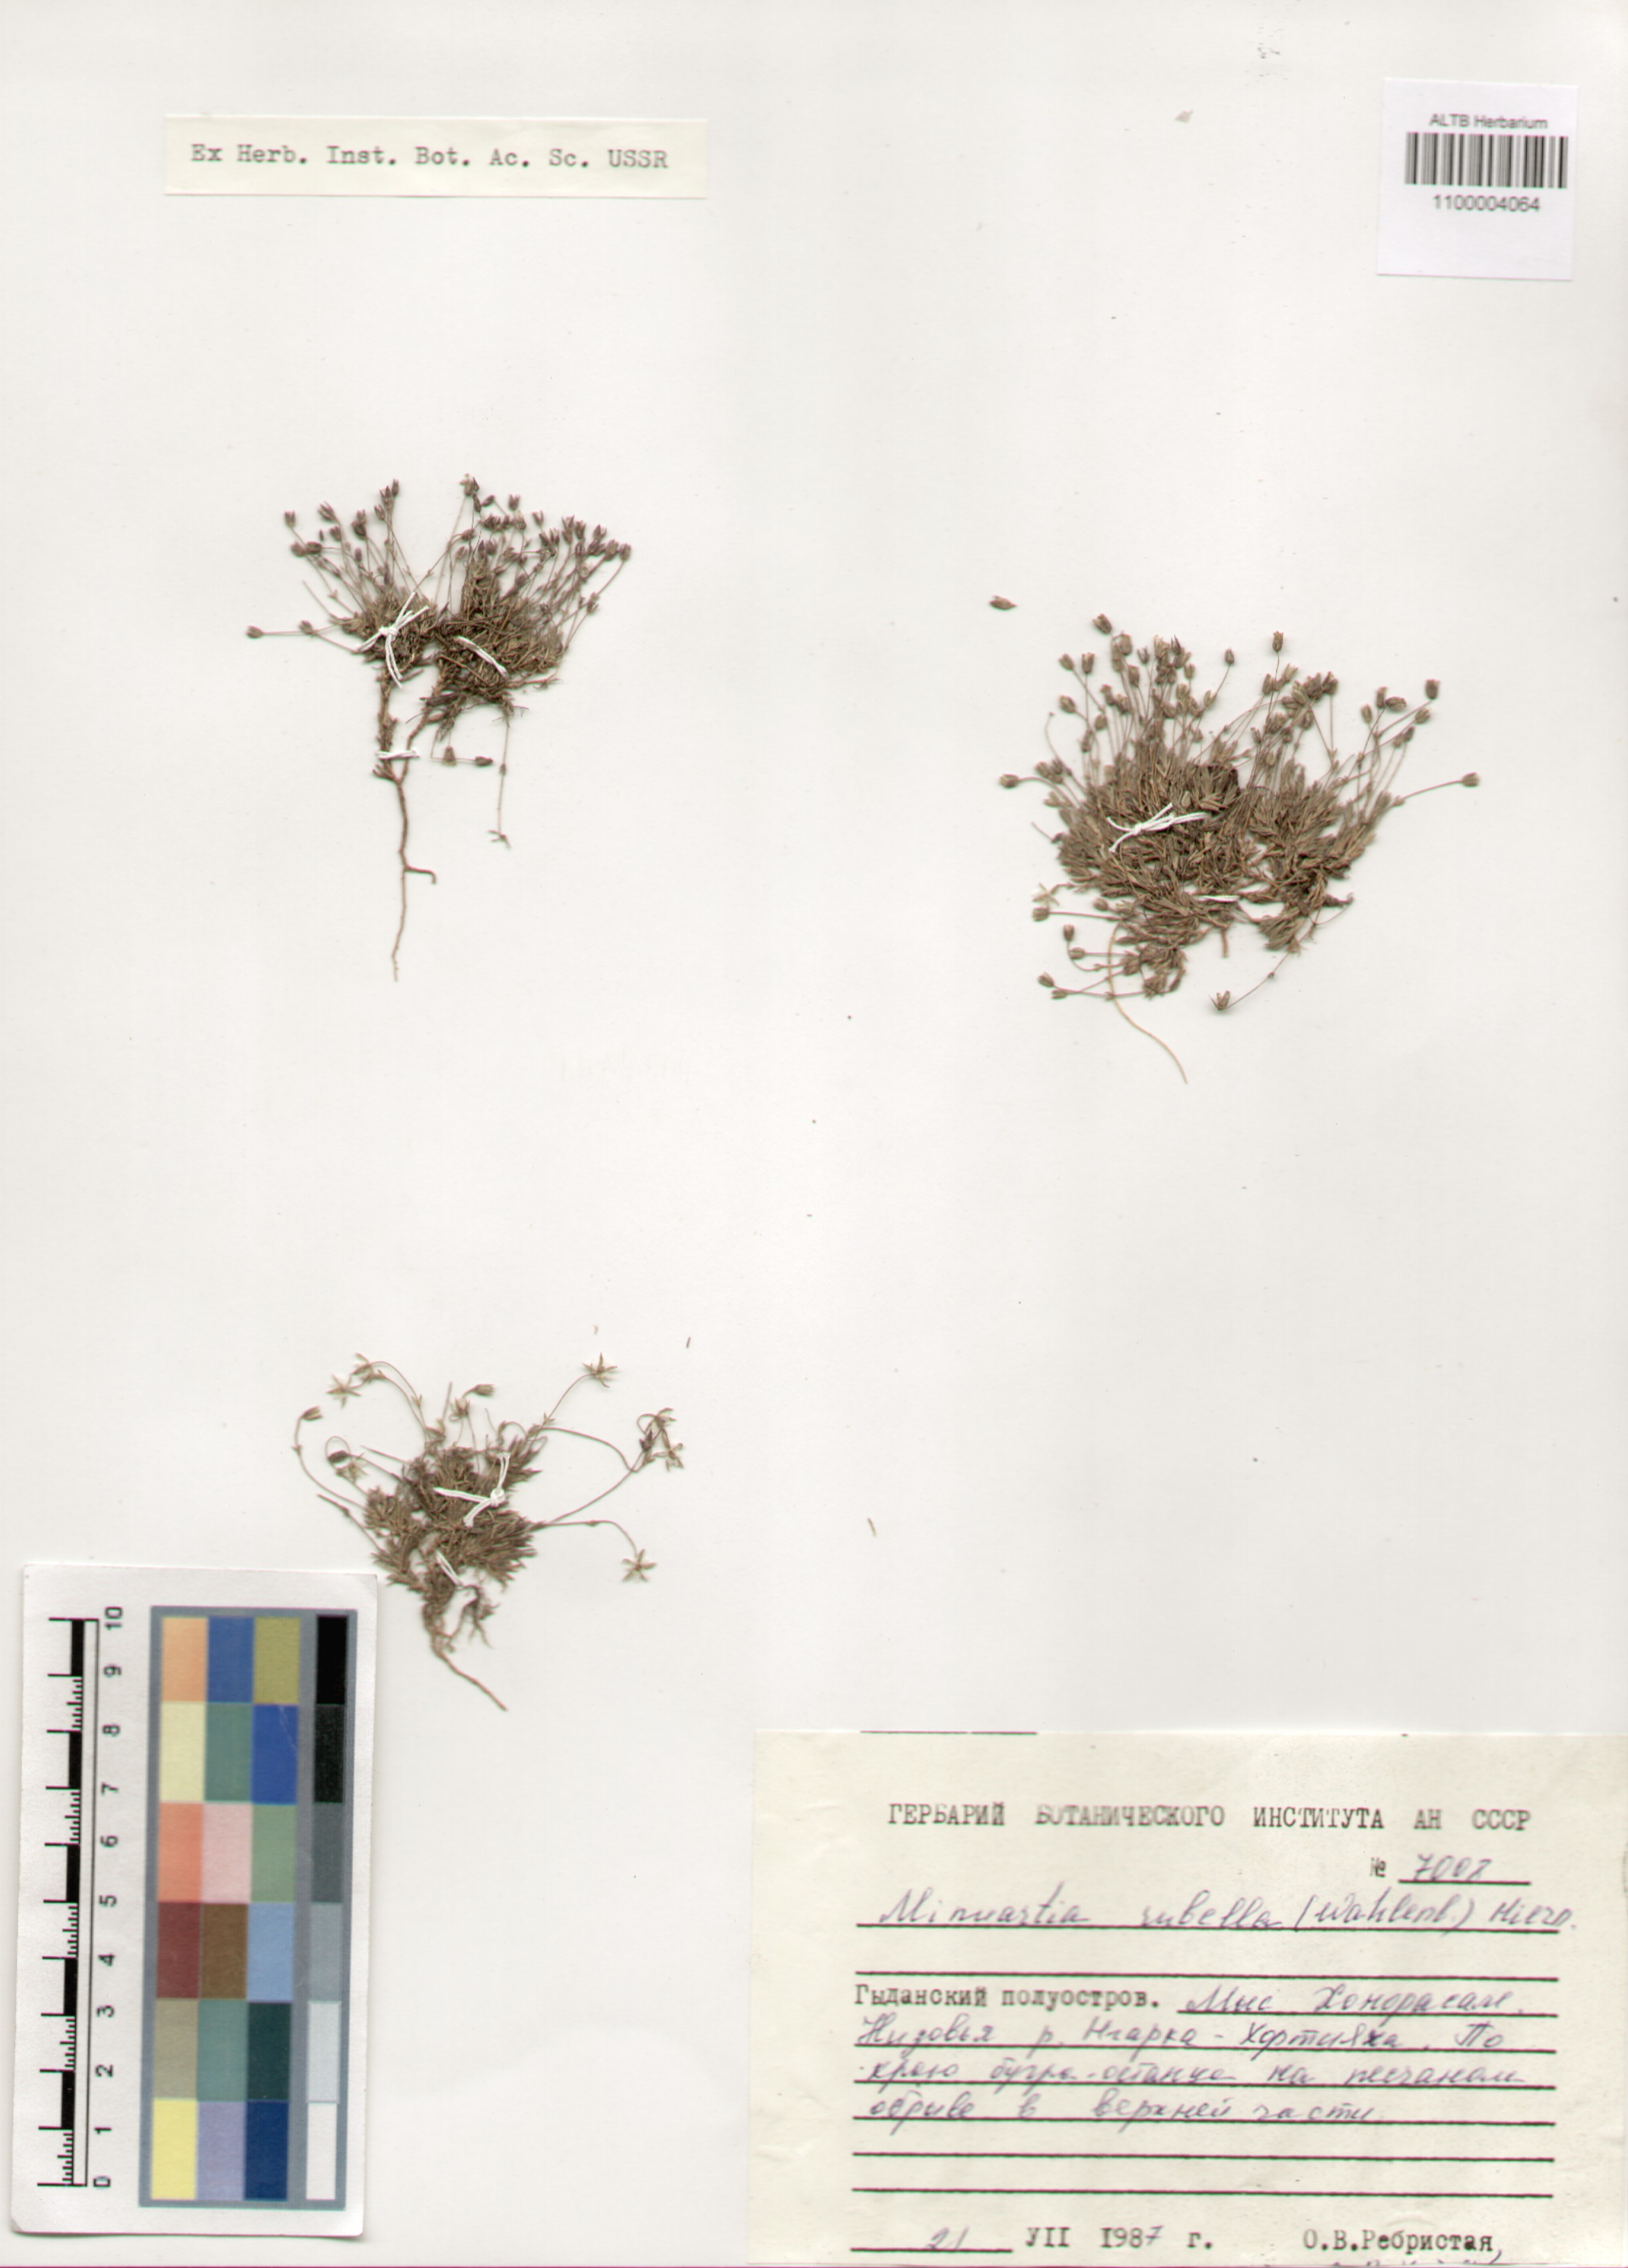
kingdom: Plantae
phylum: Tracheophyta
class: Magnoliopsida
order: Caryophyllales
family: Caryophyllaceae
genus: Sabulina
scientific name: Sabulina rubella
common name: Beautiful sandwort
